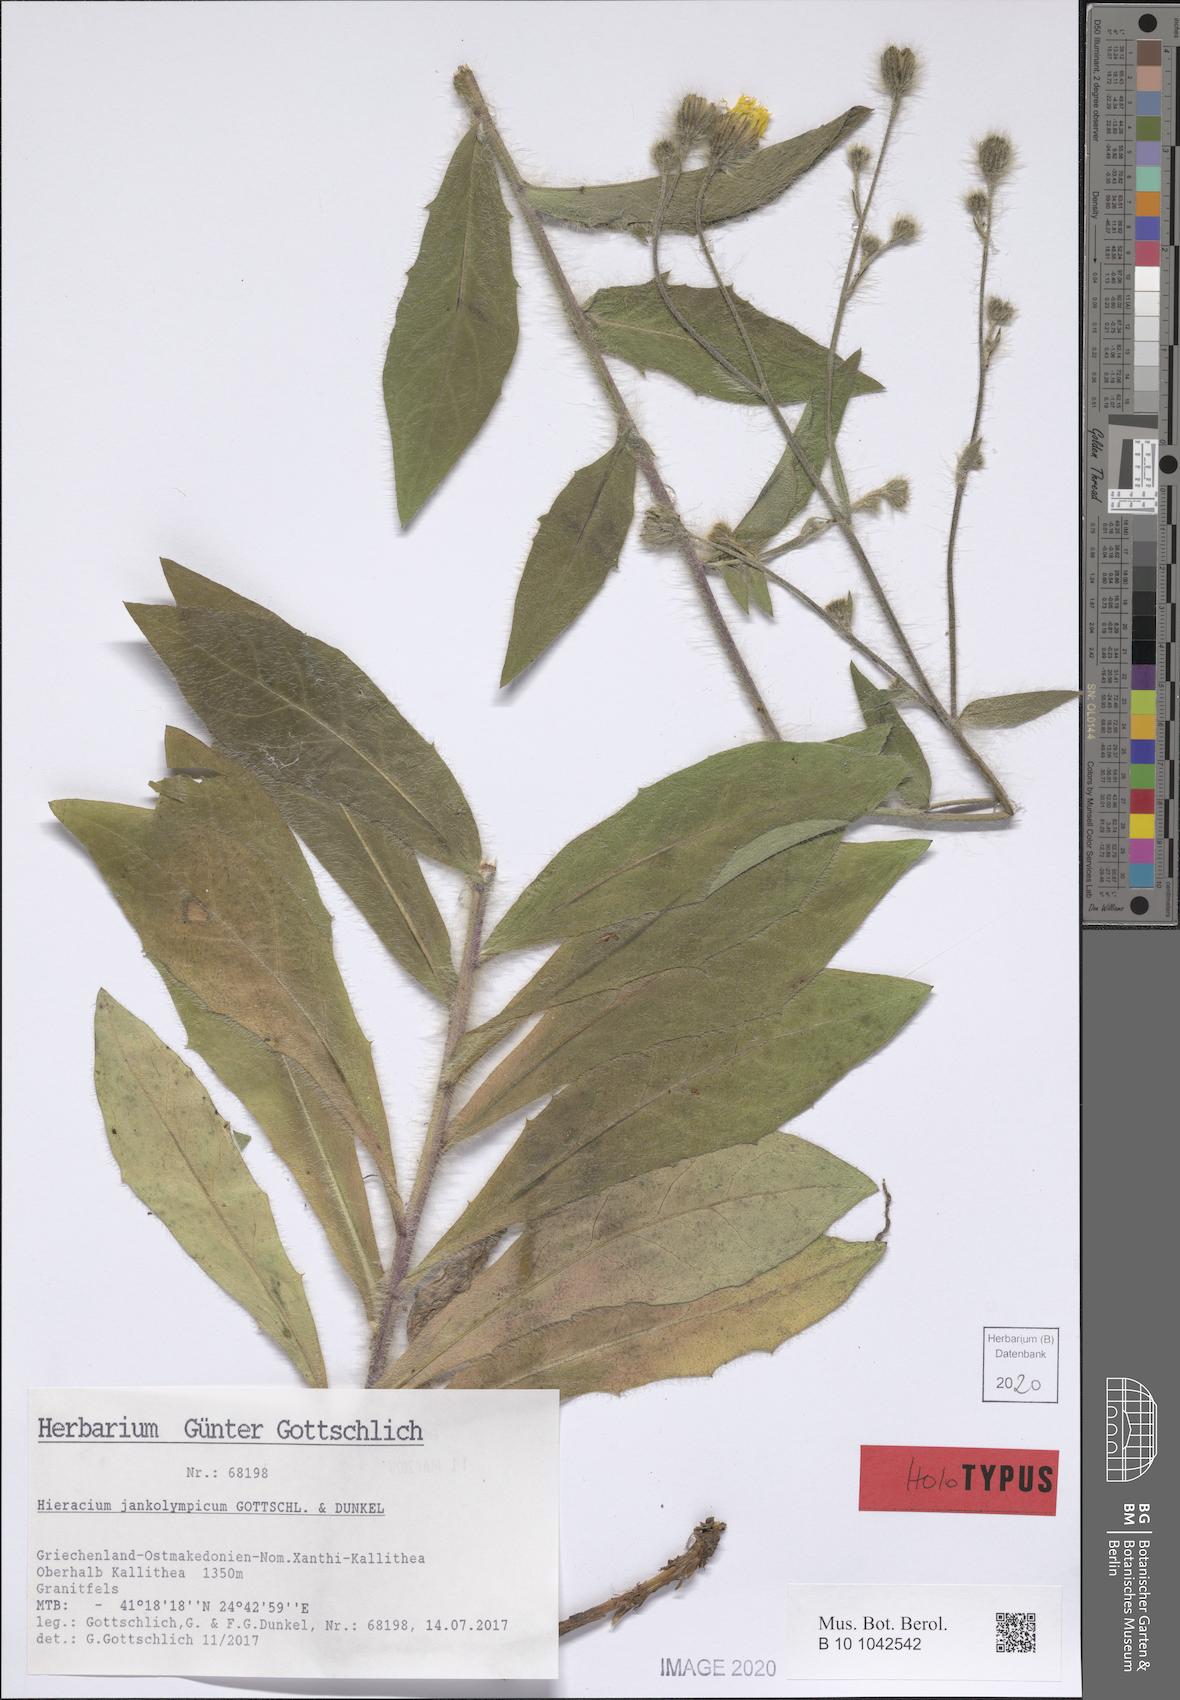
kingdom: Plantae
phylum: Tracheophyta
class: Magnoliopsida
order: Asterales
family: Asteraceae
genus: Hieracium
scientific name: Hieracium jankolympicum
